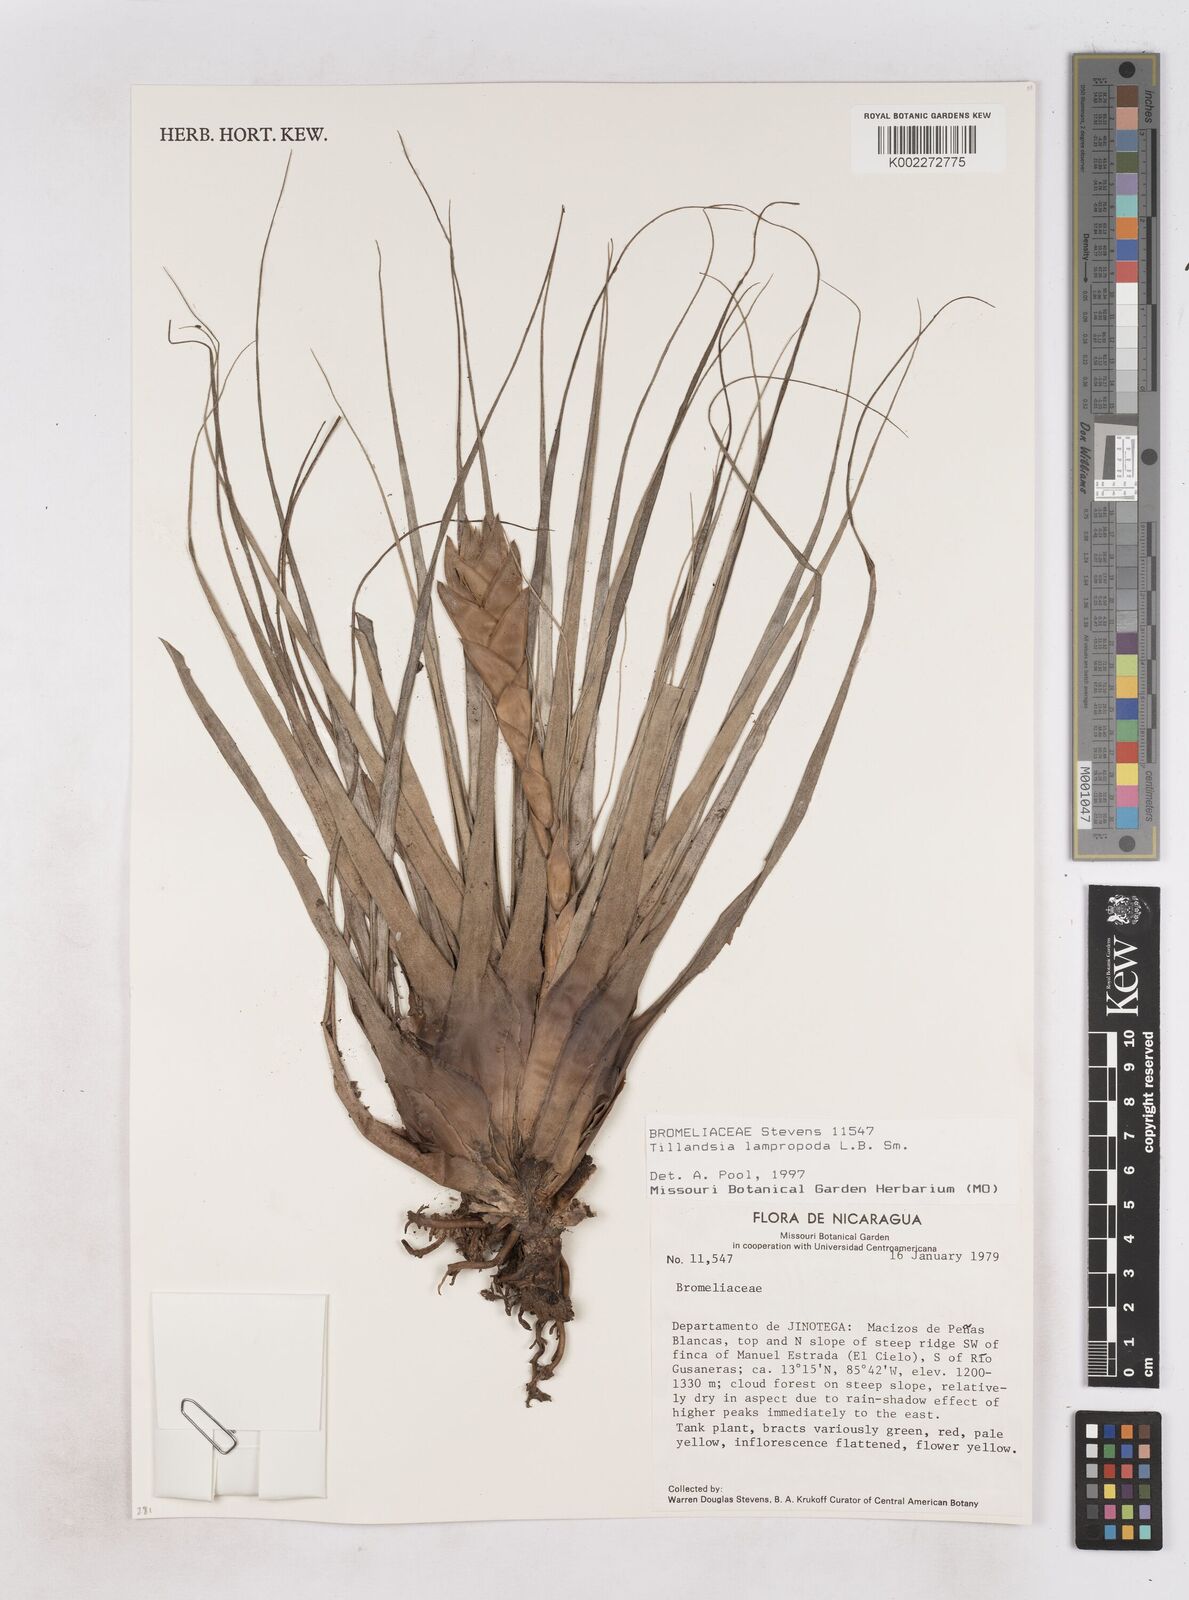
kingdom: Plantae
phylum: Tracheophyta
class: Liliopsida
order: Poales
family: Bromeliaceae
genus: Tillandsia
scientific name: Tillandsia lampropoda
